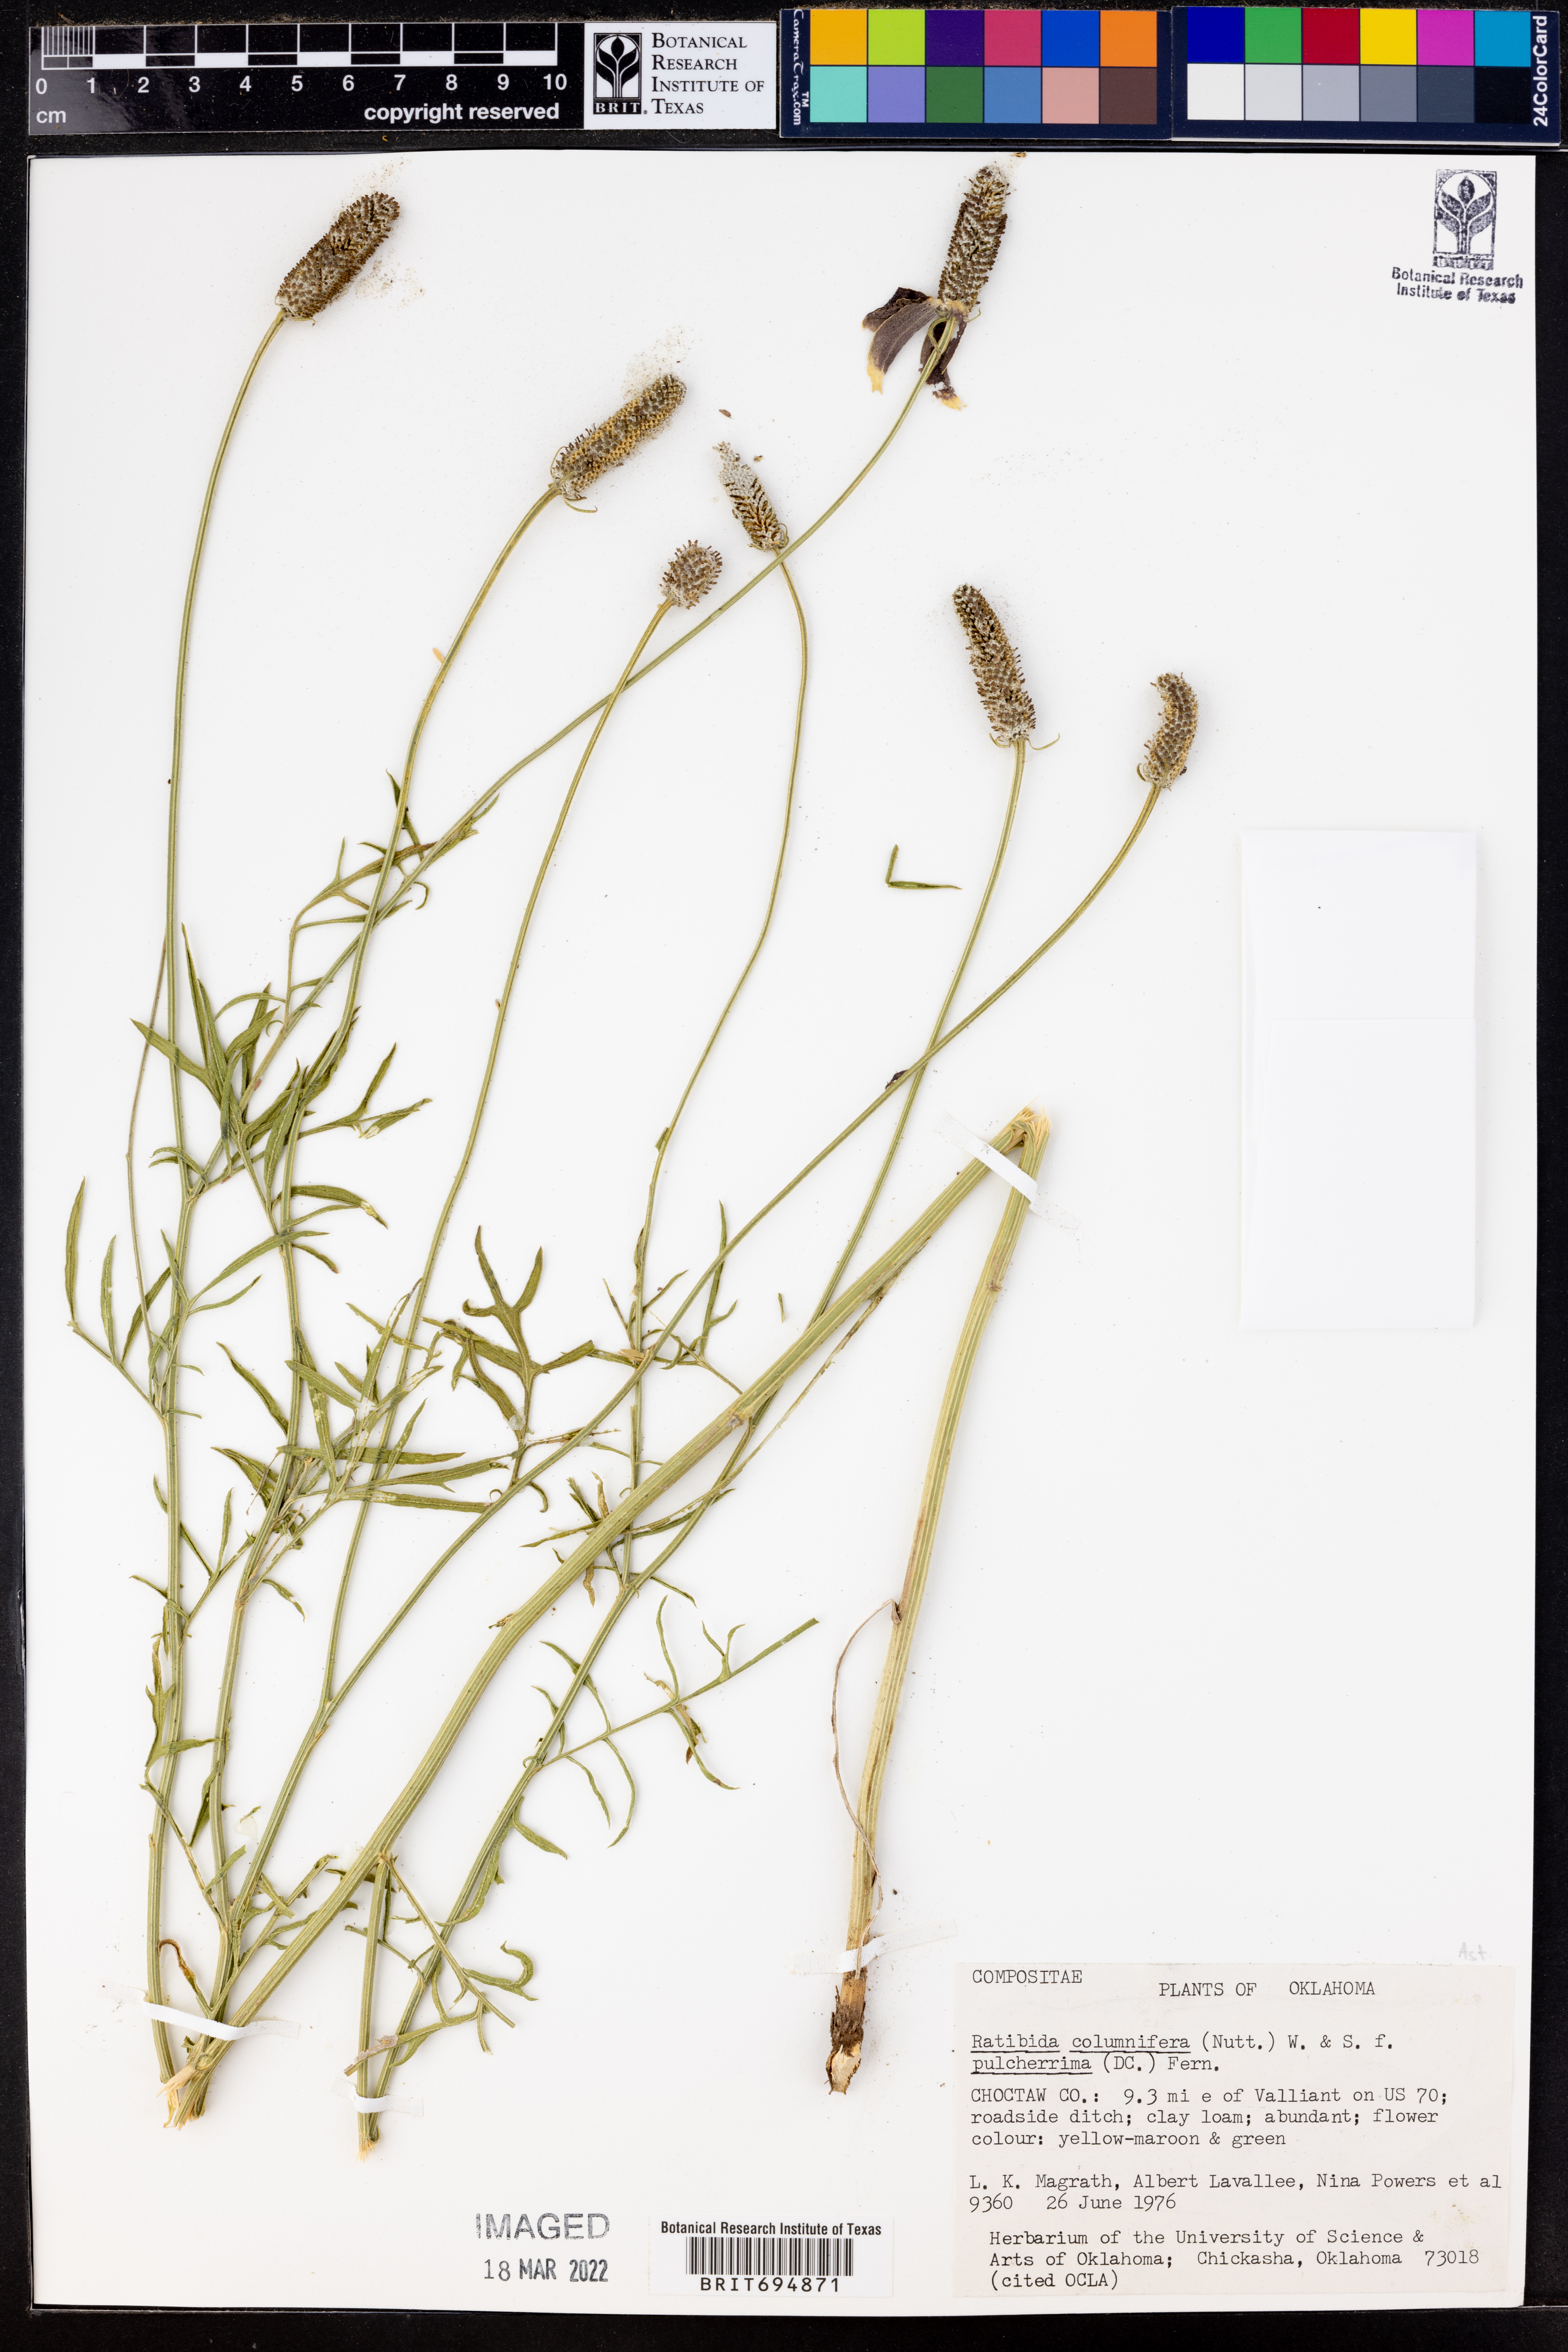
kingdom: Plantae
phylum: Tracheophyta
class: Magnoliopsida
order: Asterales
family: Asteraceae
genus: Ratibida
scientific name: Ratibida columnifera
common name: Prairie coneflower
